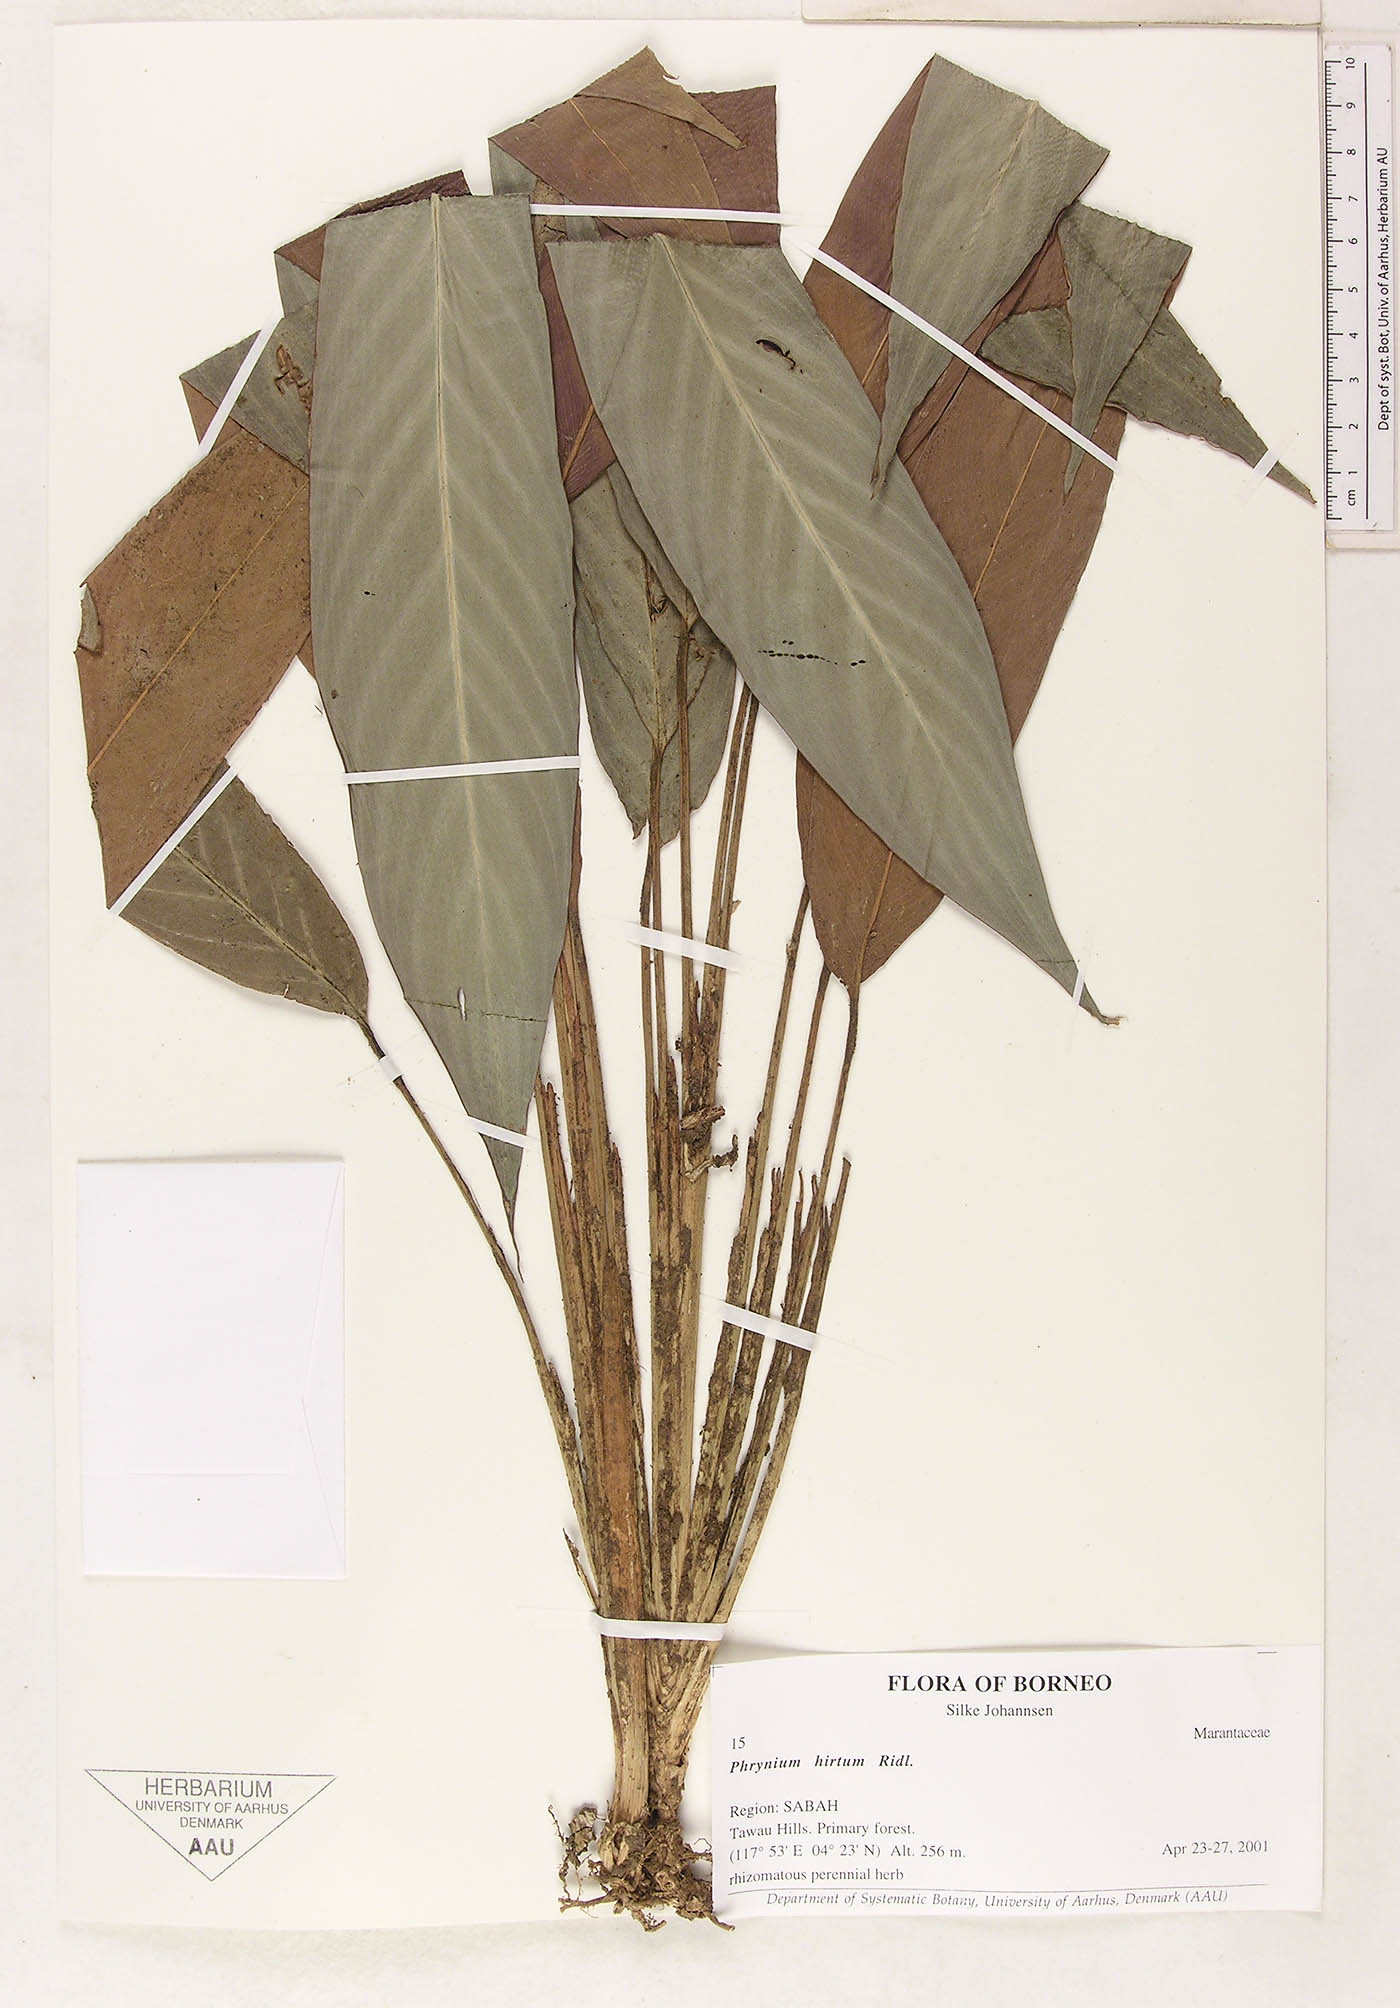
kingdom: Plantae
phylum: Tracheophyta
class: Liliopsida
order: Zingiberales
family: Marantaceae
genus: Phrynium
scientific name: Phrynium hirtum
